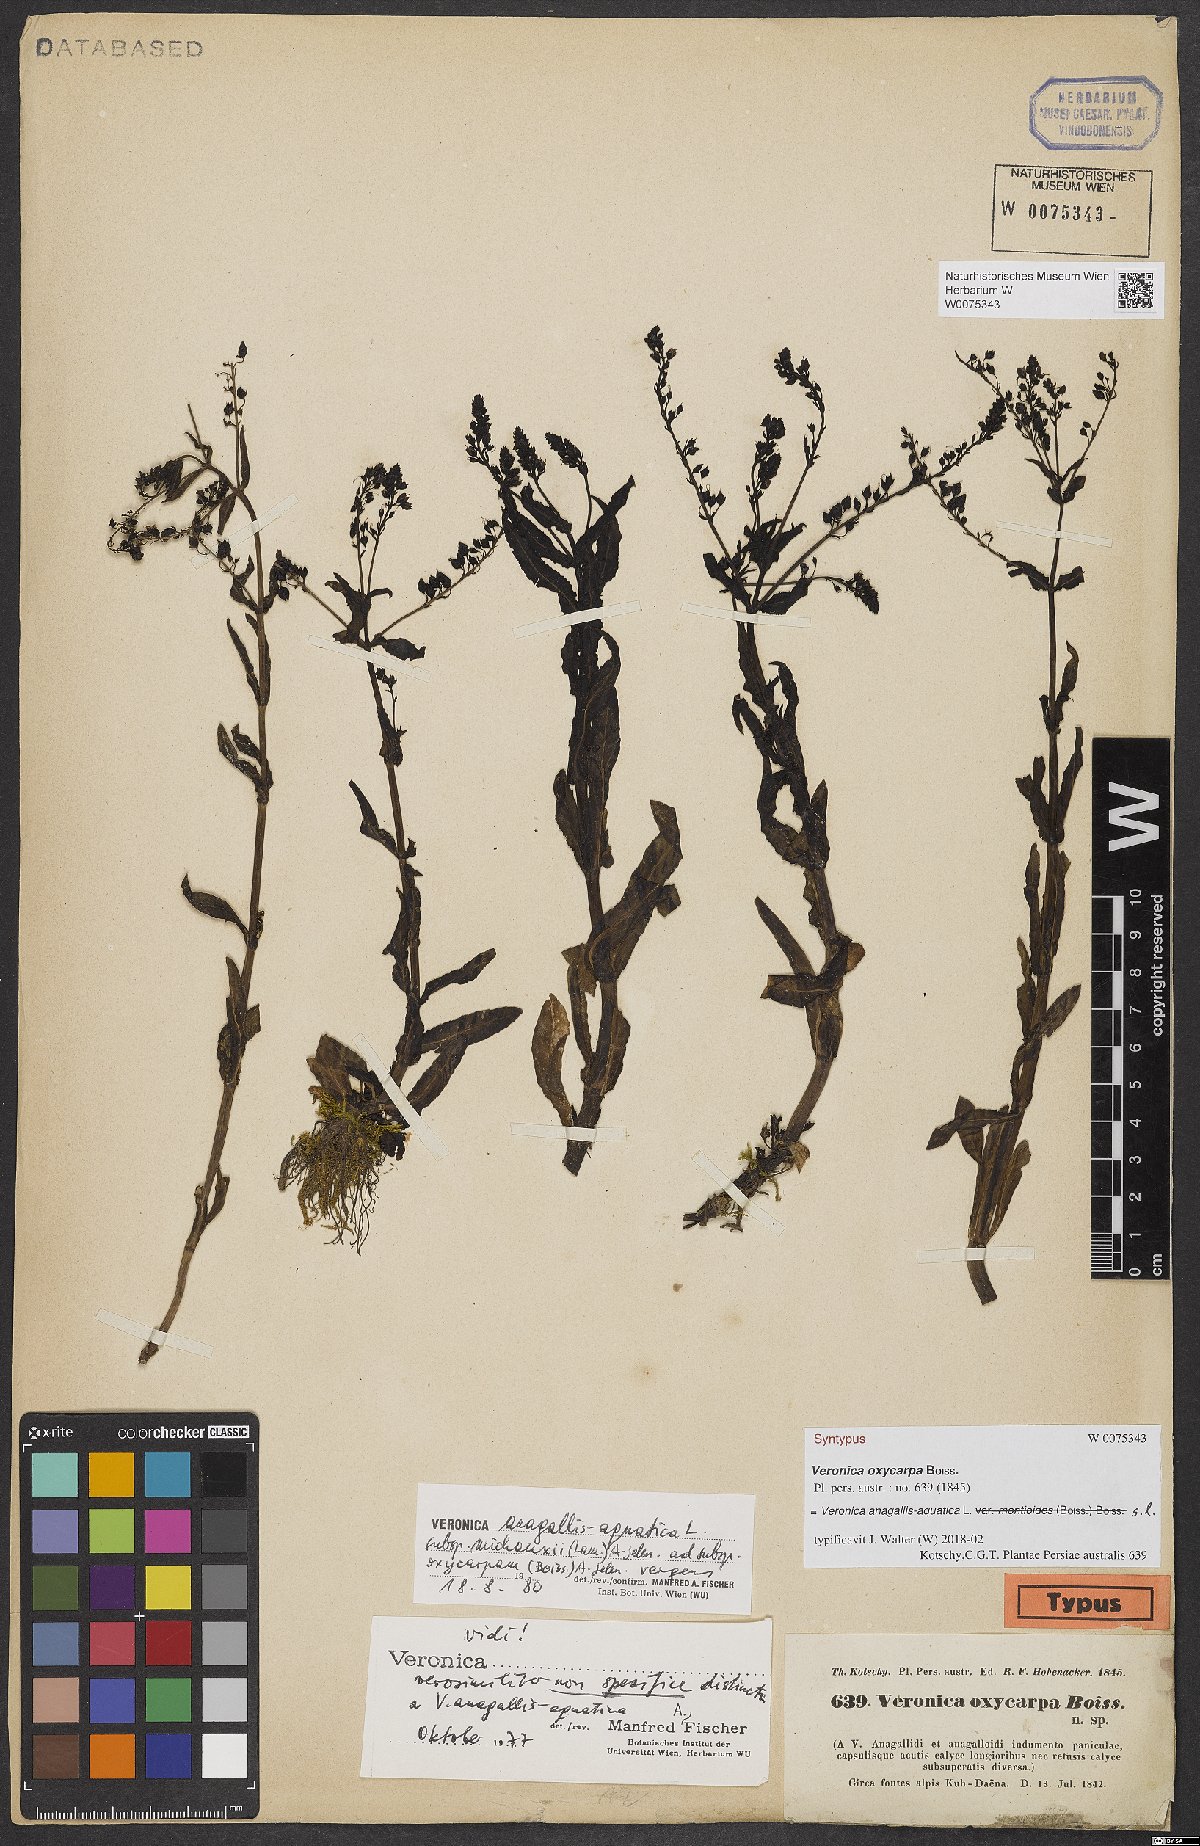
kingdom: Plantae
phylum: Tracheophyta
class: Magnoliopsida
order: Lamiales
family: Plantaginaceae
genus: Veronica
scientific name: Veronica oxycarpa
